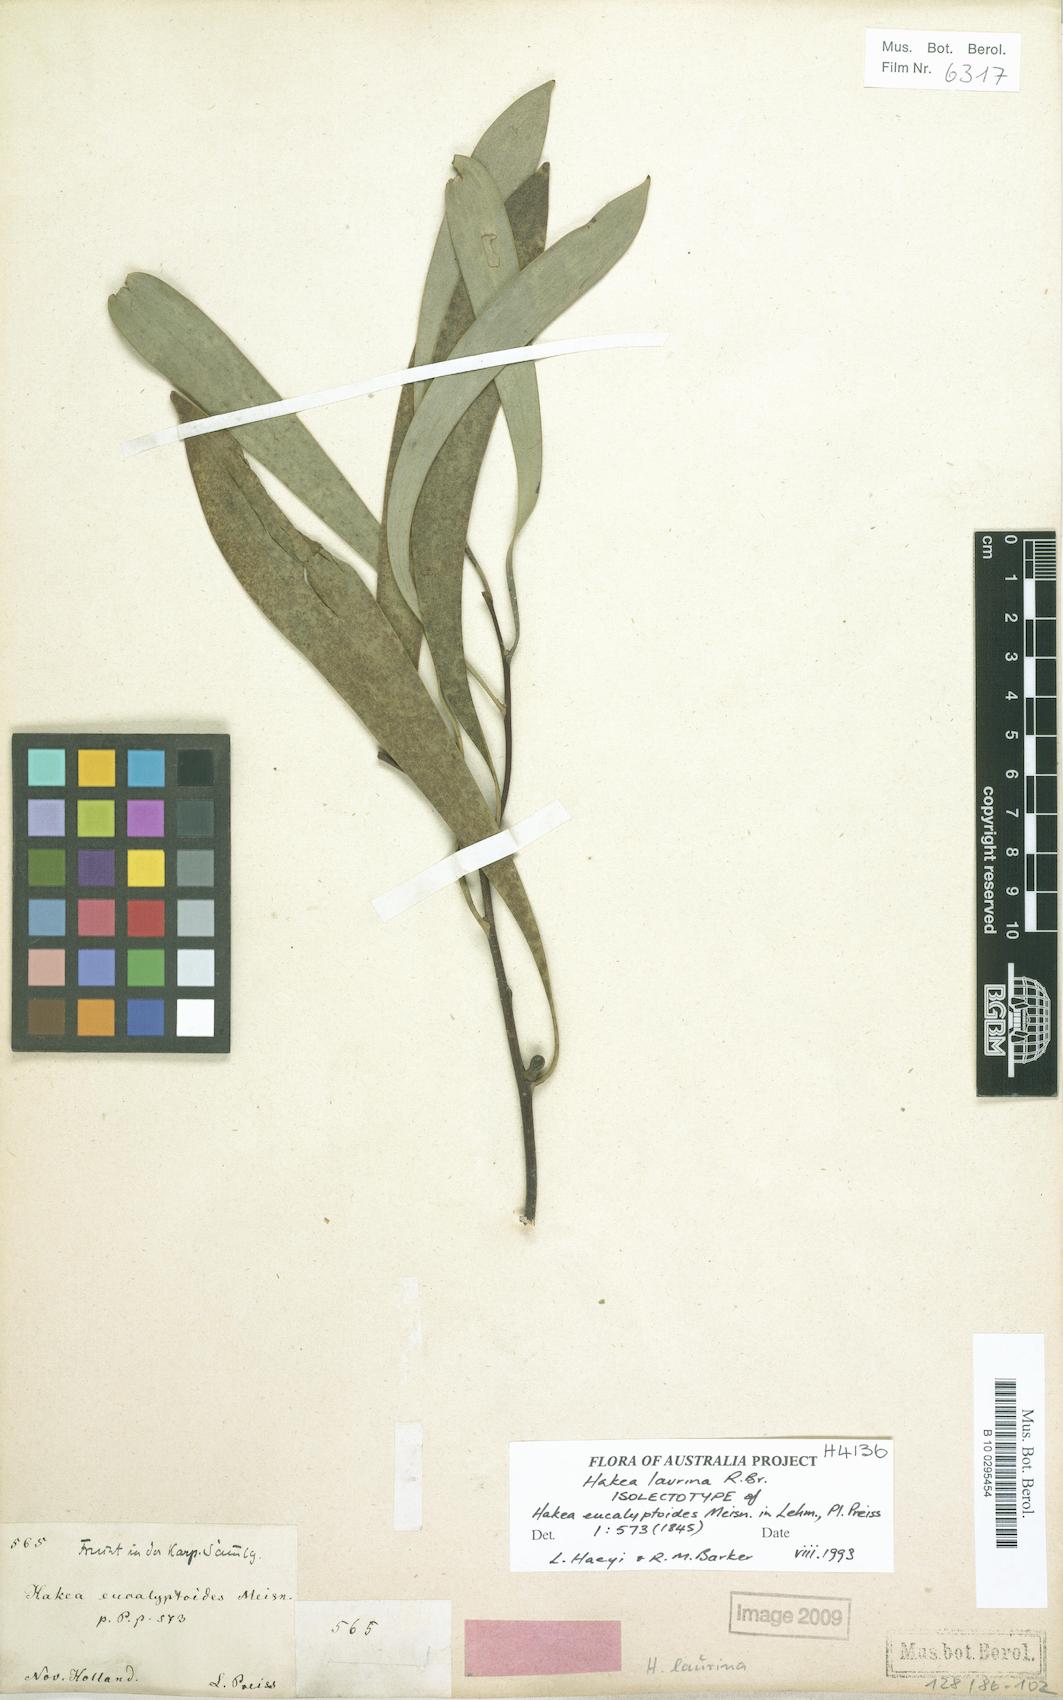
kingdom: Plantae
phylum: Tracheophyta
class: Magnoliopsida
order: Proteales
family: Proteaceae
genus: Hakea
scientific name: Hakea laurina
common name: Cushion hakea
